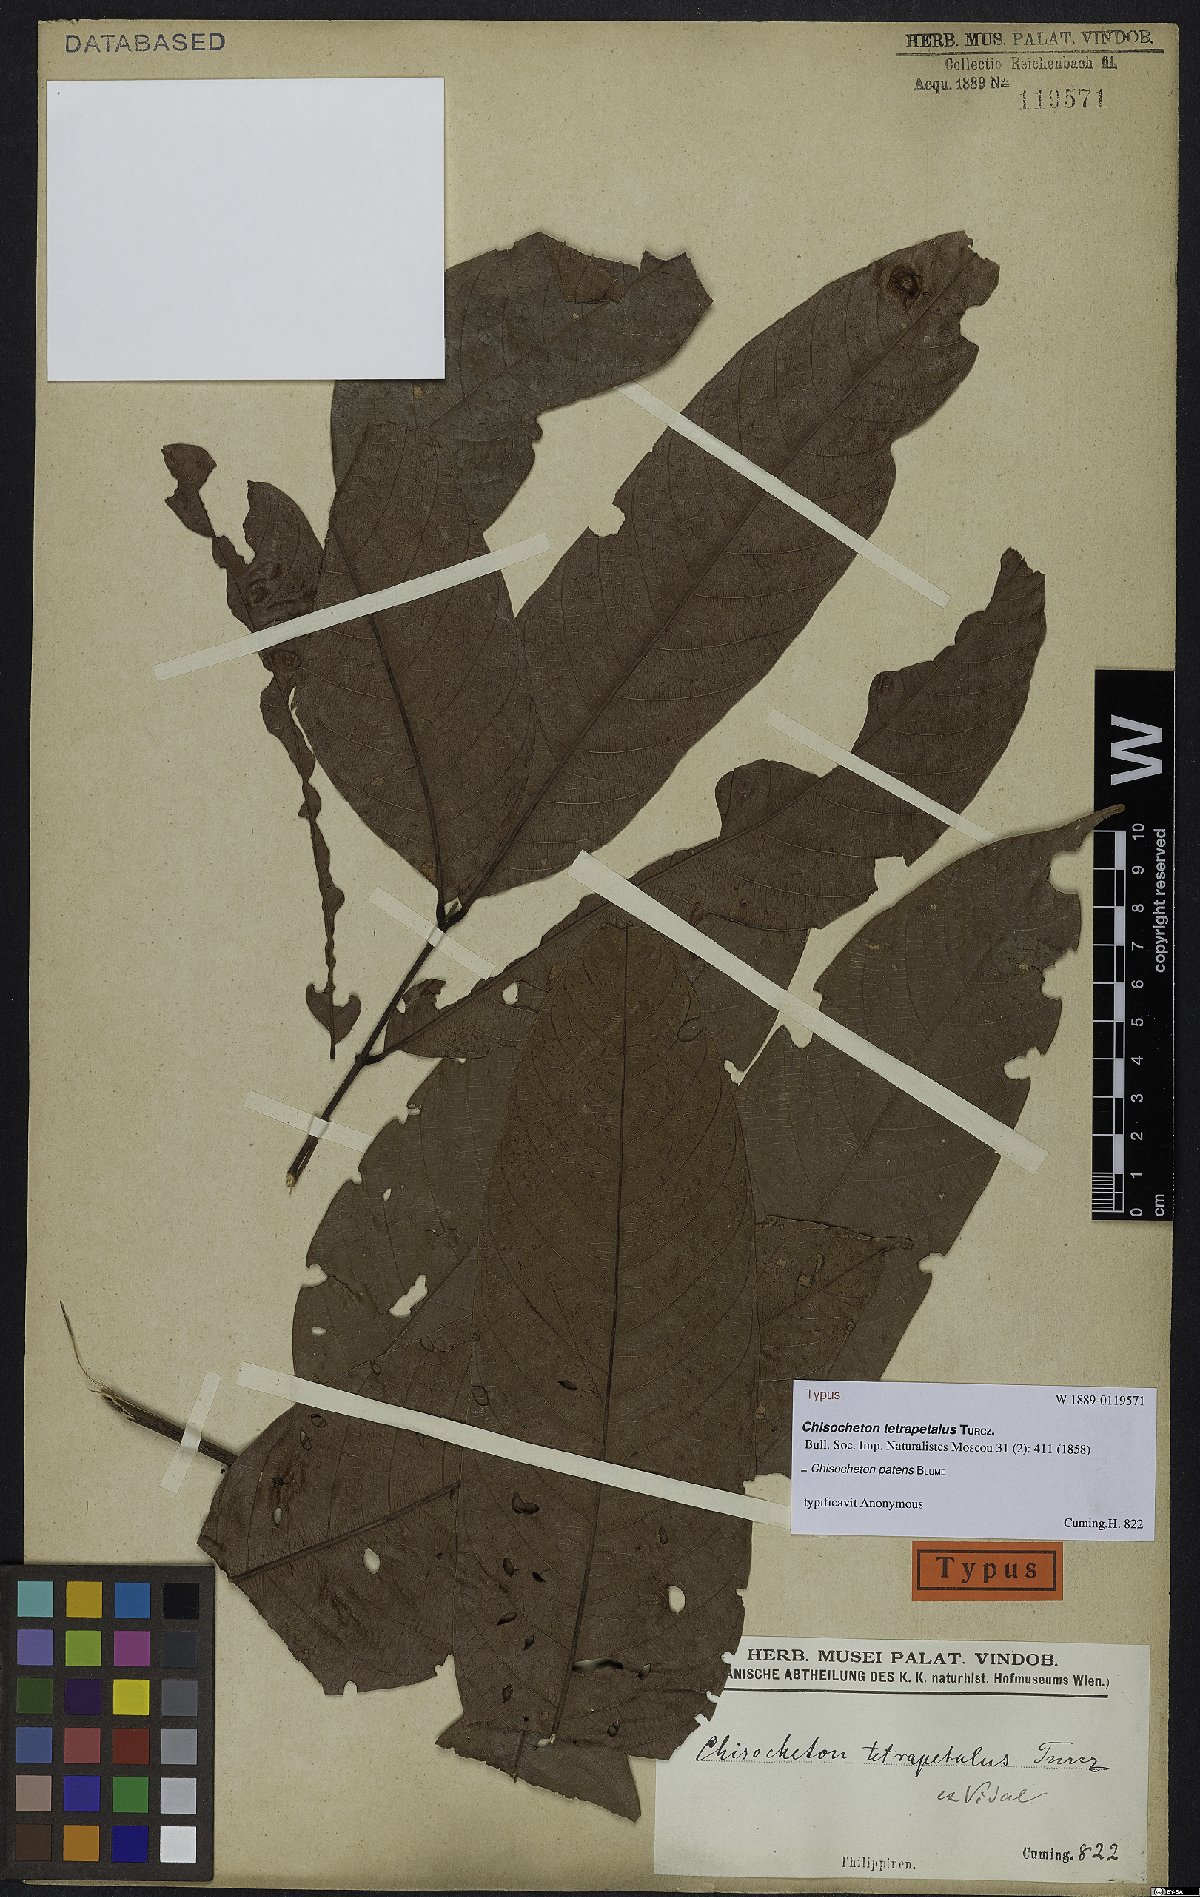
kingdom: Plantae
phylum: Tracheophyta
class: Magnoliopsida
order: Sapindales
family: Meliaceae
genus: Chisocheton
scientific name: Chisocheton patens
